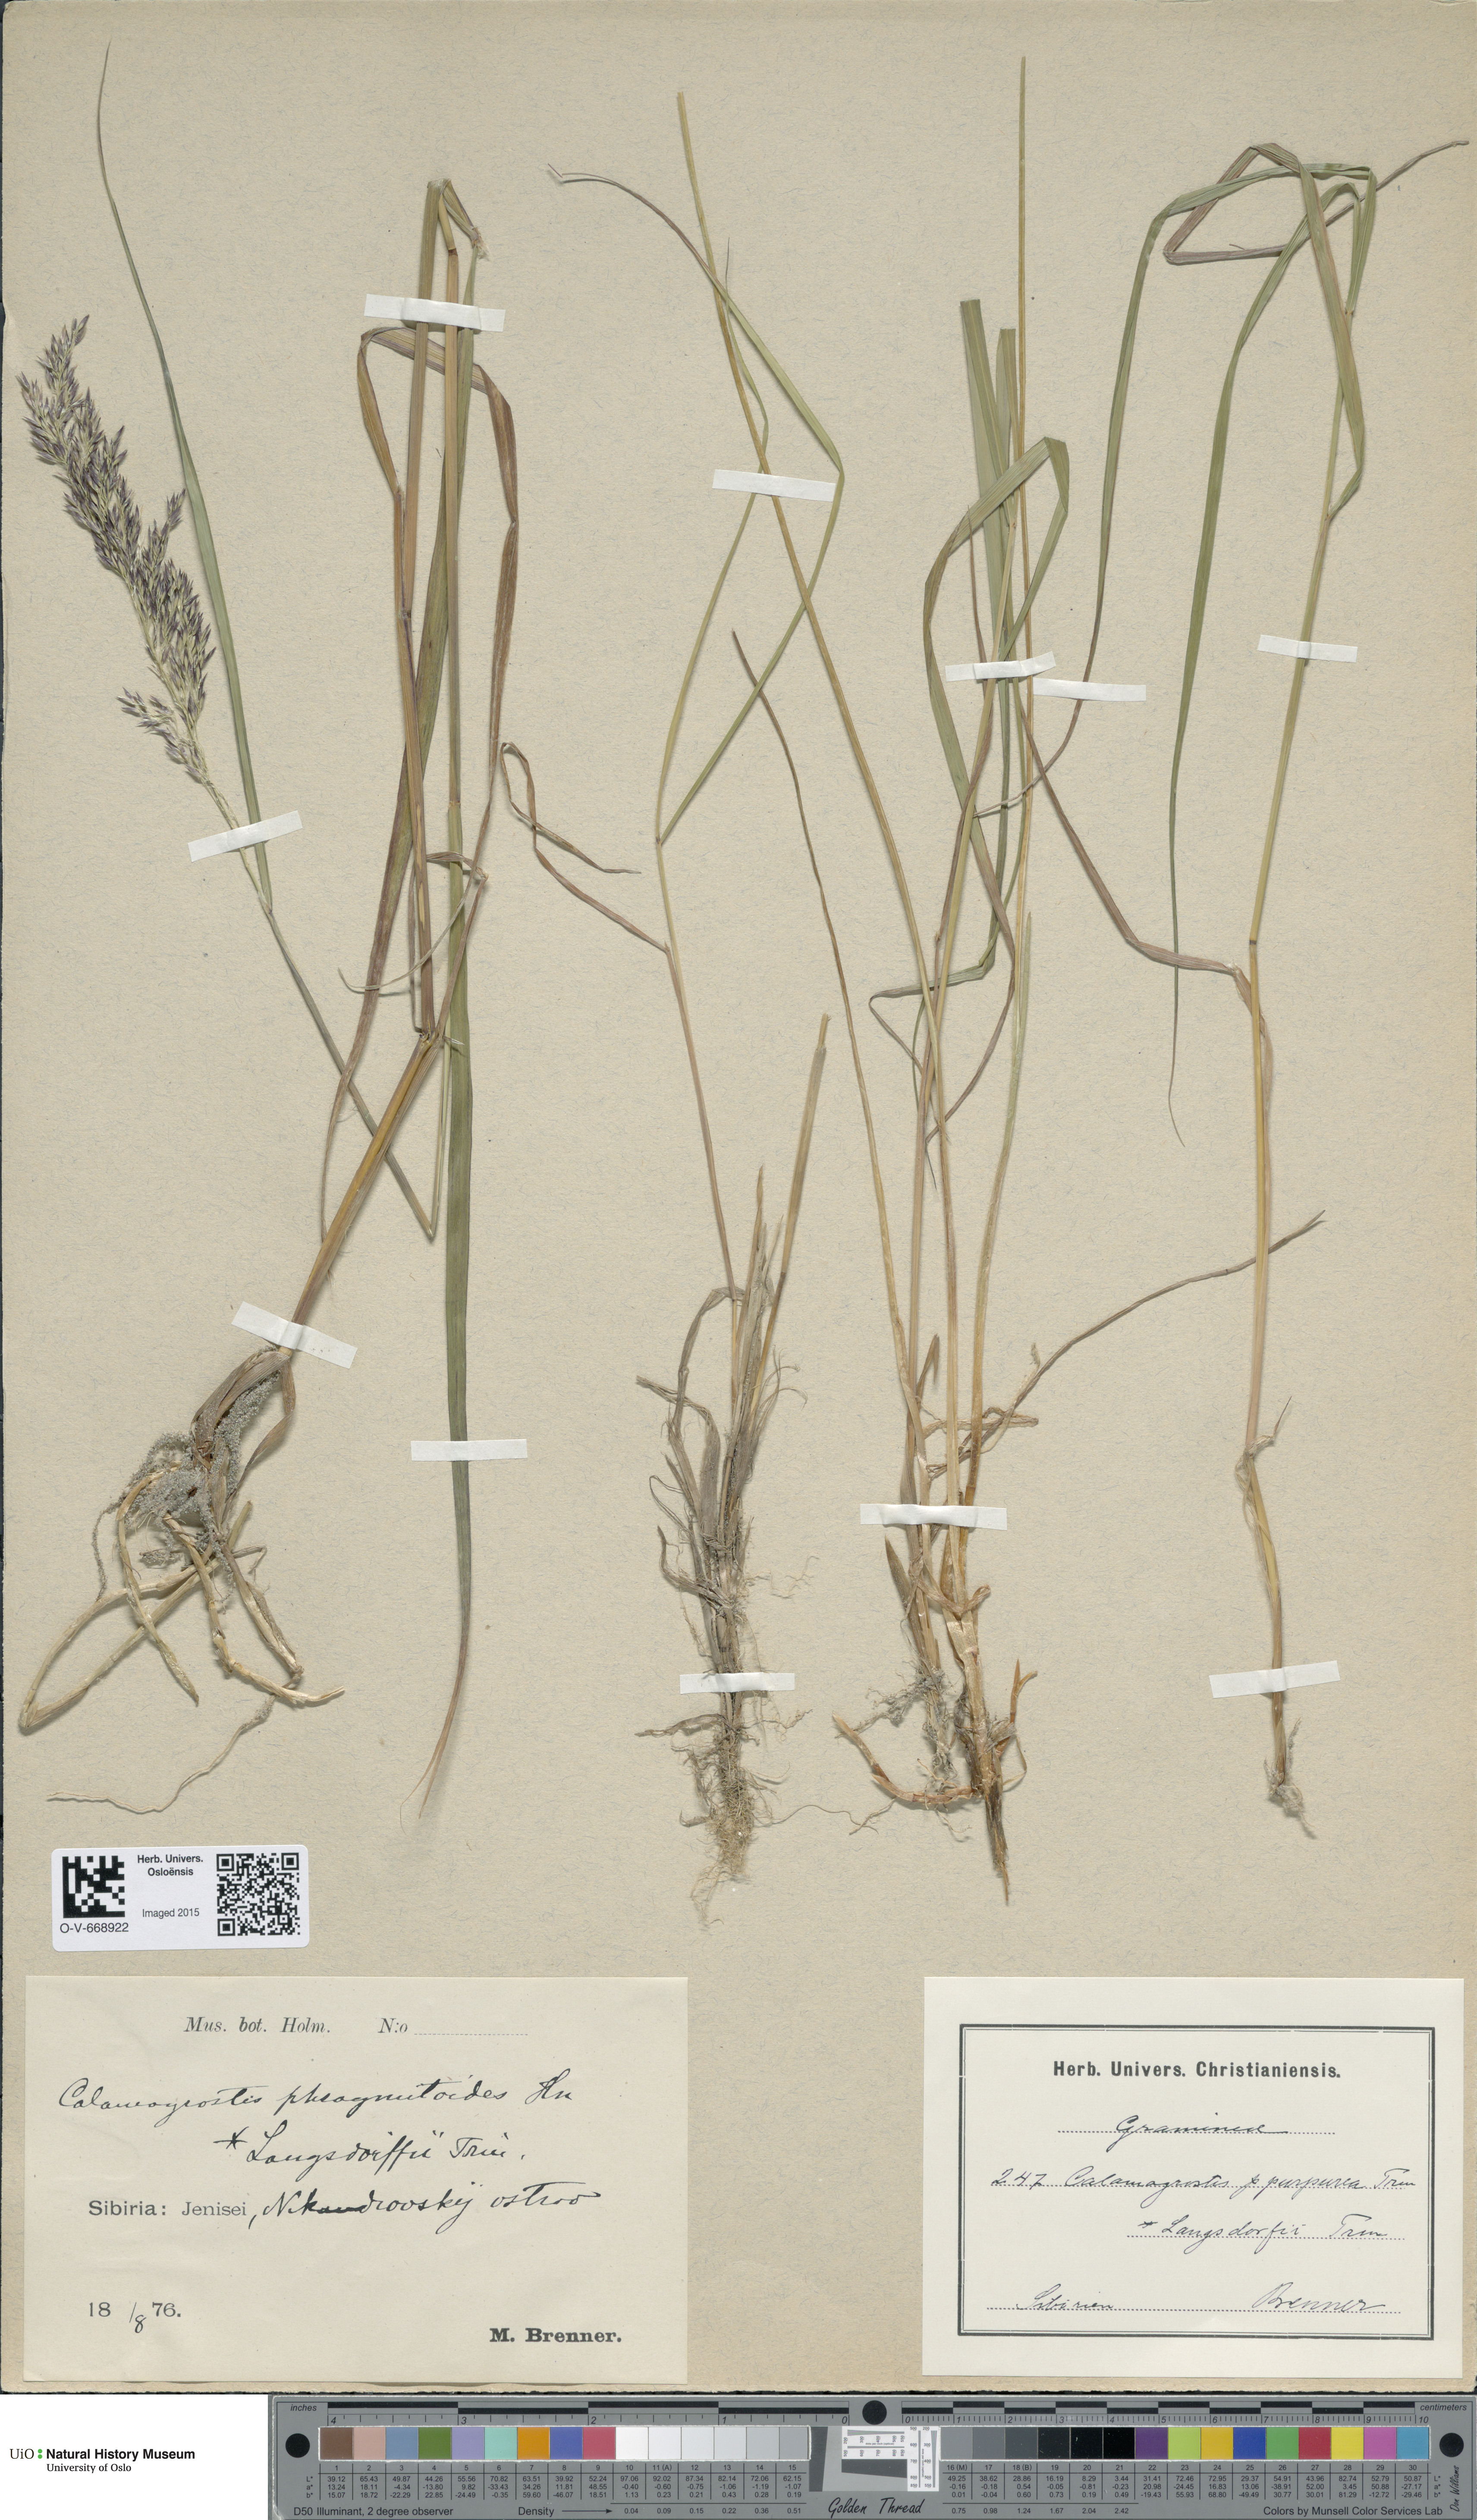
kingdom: Plantae
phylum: Tracheophyta
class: Liliopsida
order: Poales
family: Poaceae
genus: Calamagrostis
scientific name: Calamagrostis purpurea
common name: Scandinavian small-reed
